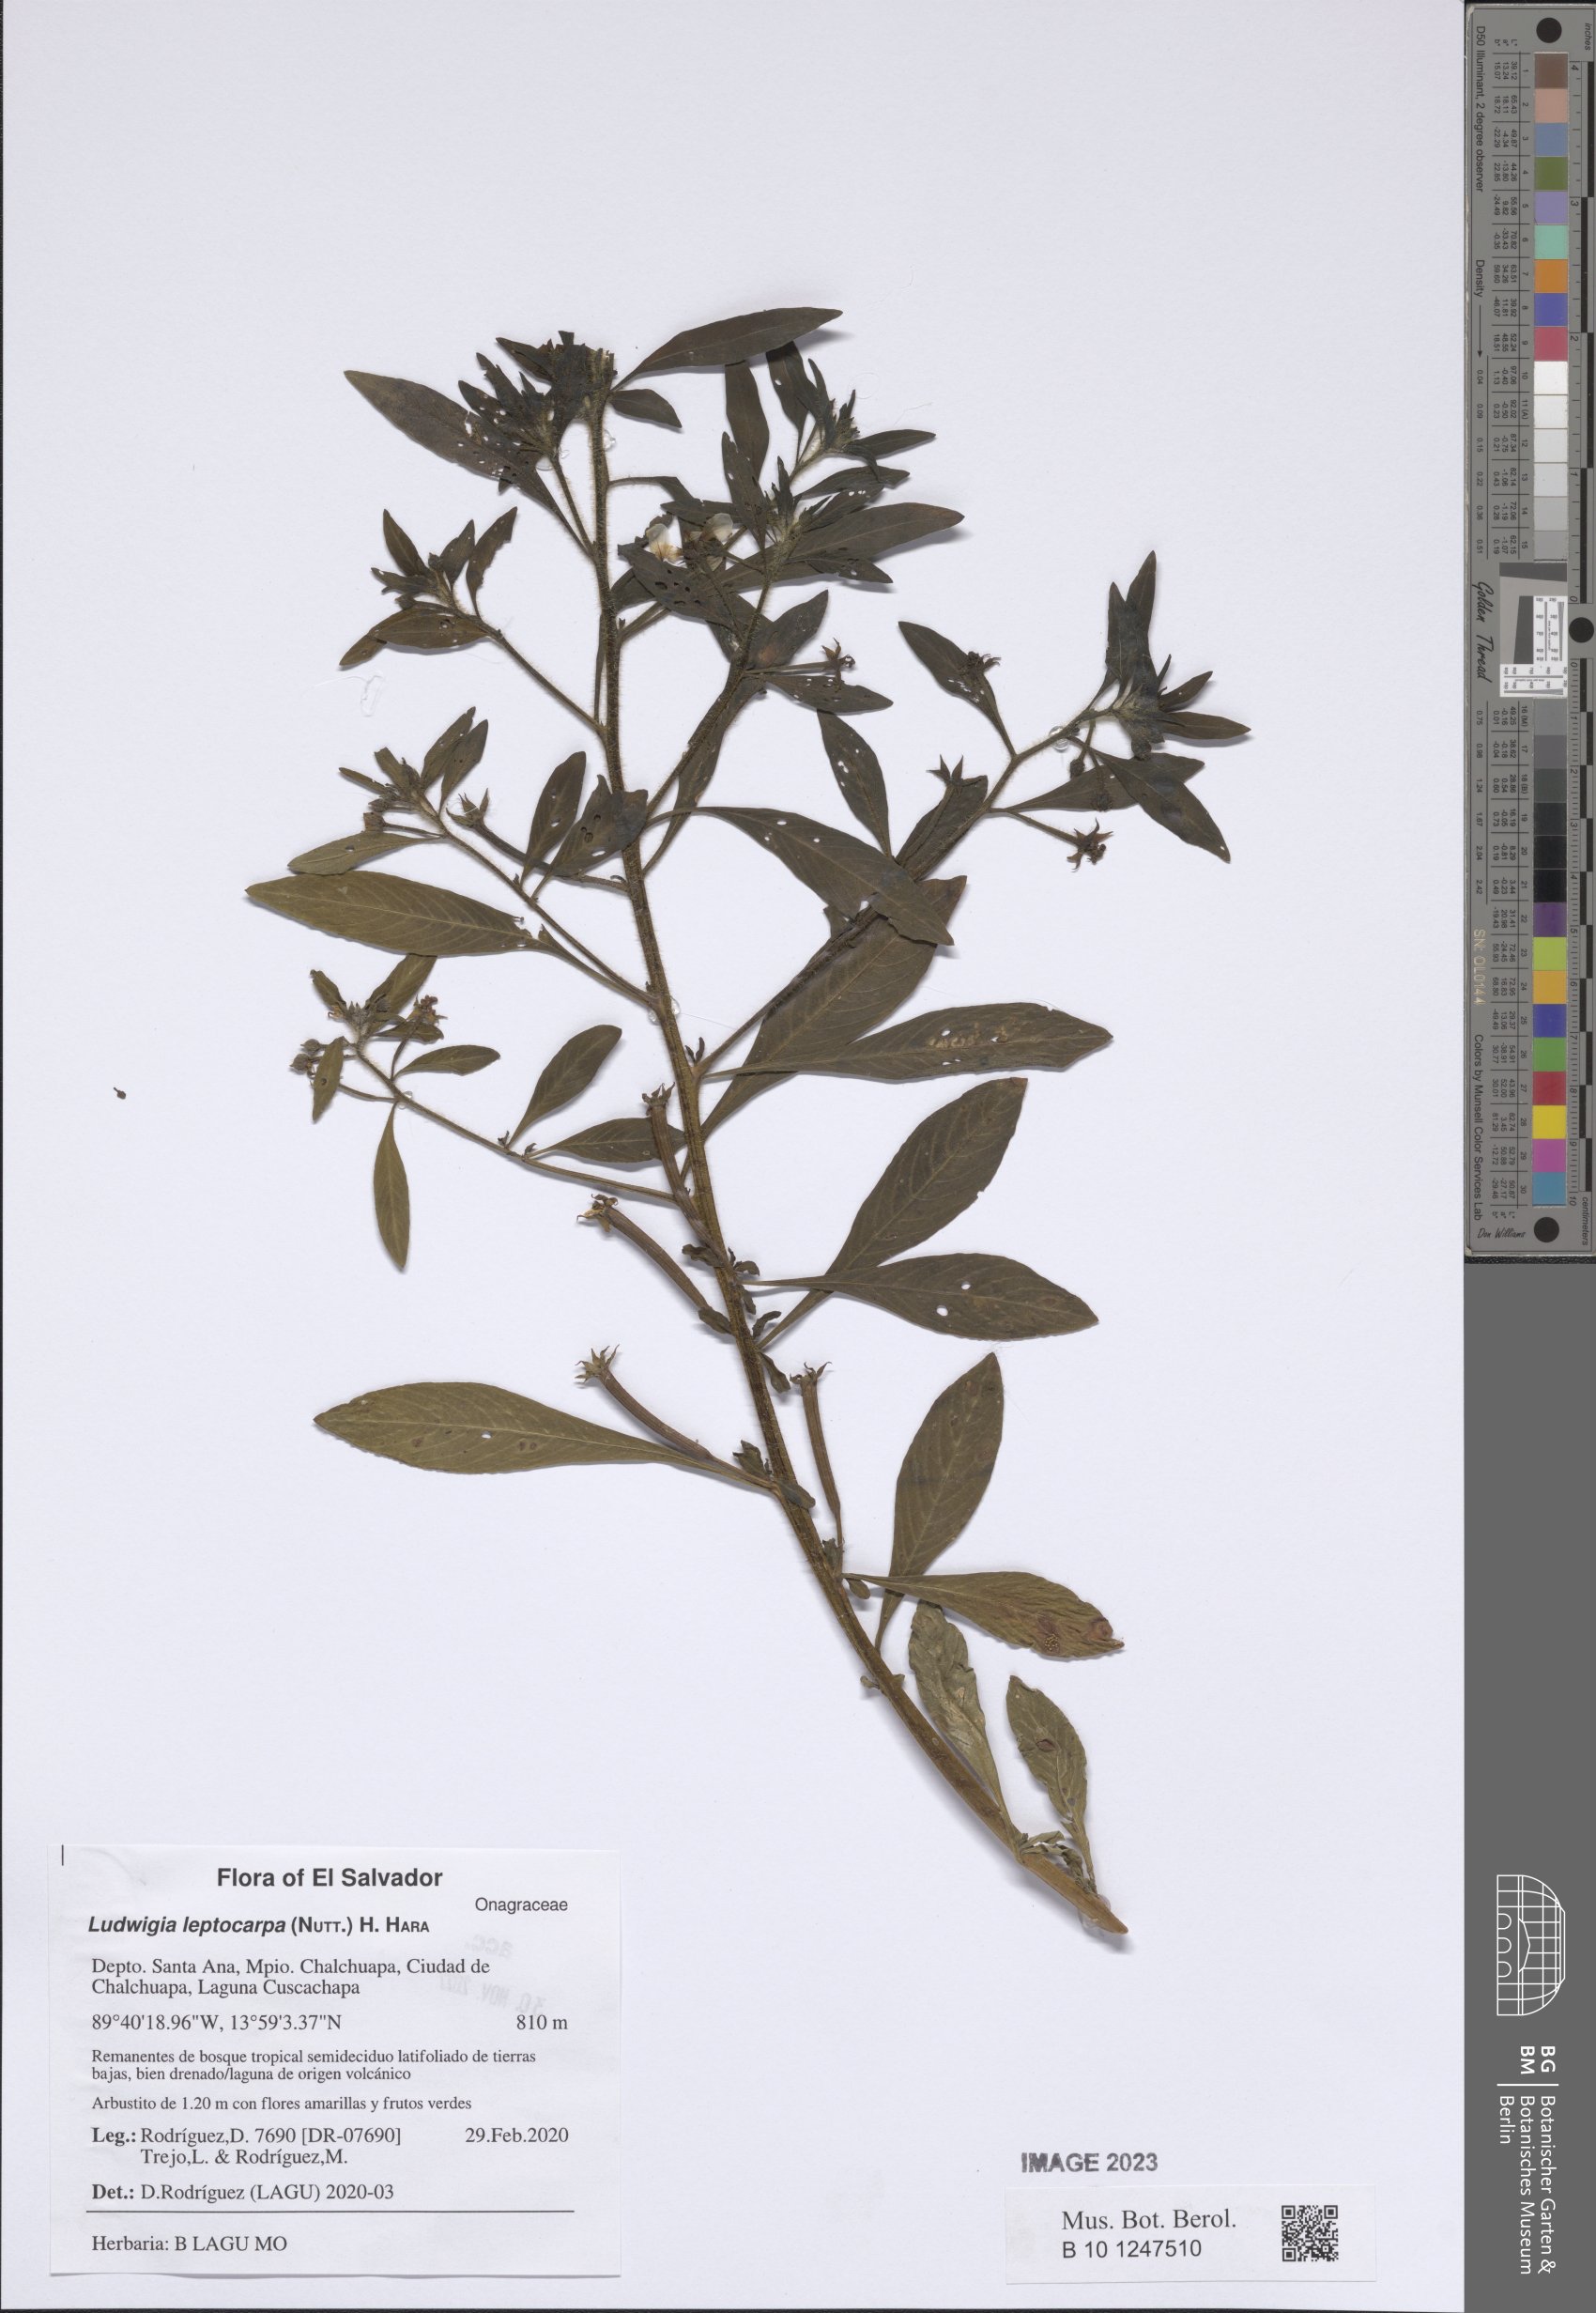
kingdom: Plantae
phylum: Tracheophyta
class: Magnoliopsida
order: Myrtales
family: Onagraceae
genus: Ludwigia
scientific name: Ludwigia leptocarpa
